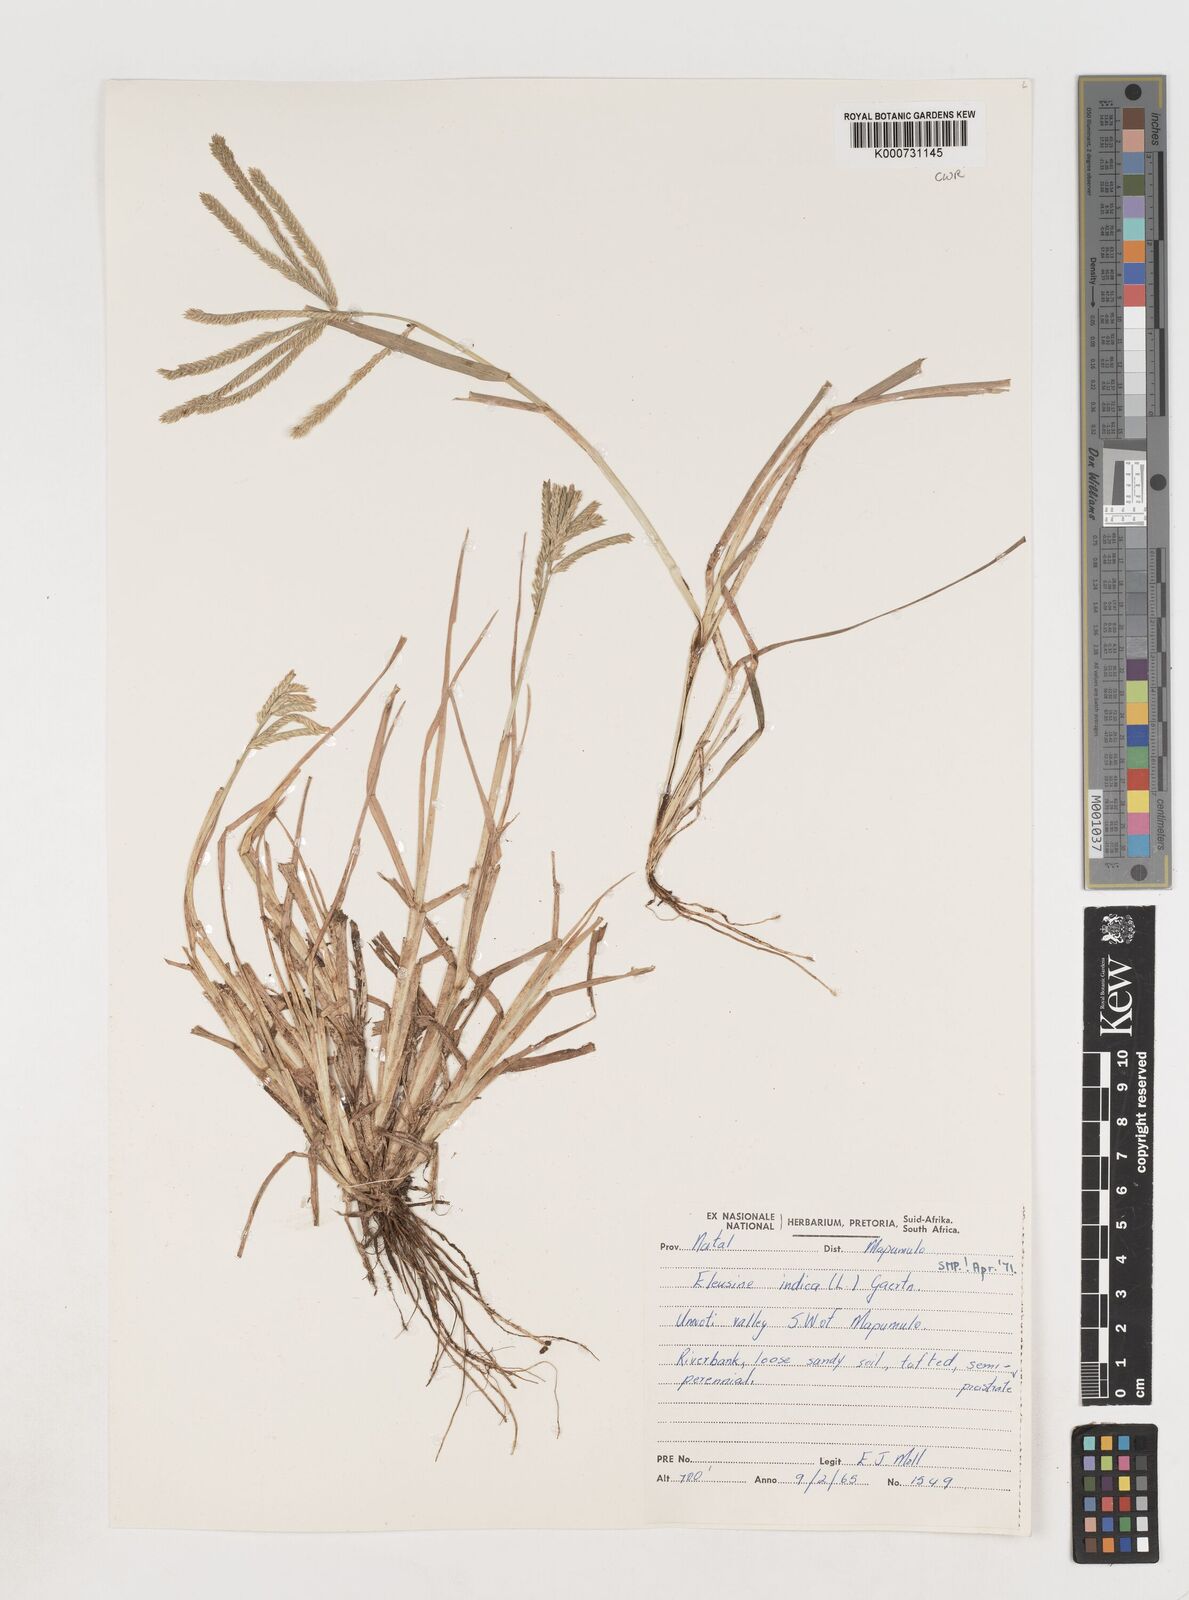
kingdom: Plantae
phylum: Tracheophyta
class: Liliopsida
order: Poales
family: Poaceae
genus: Eleusine
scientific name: Eleusine indica
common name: Yard-grass
